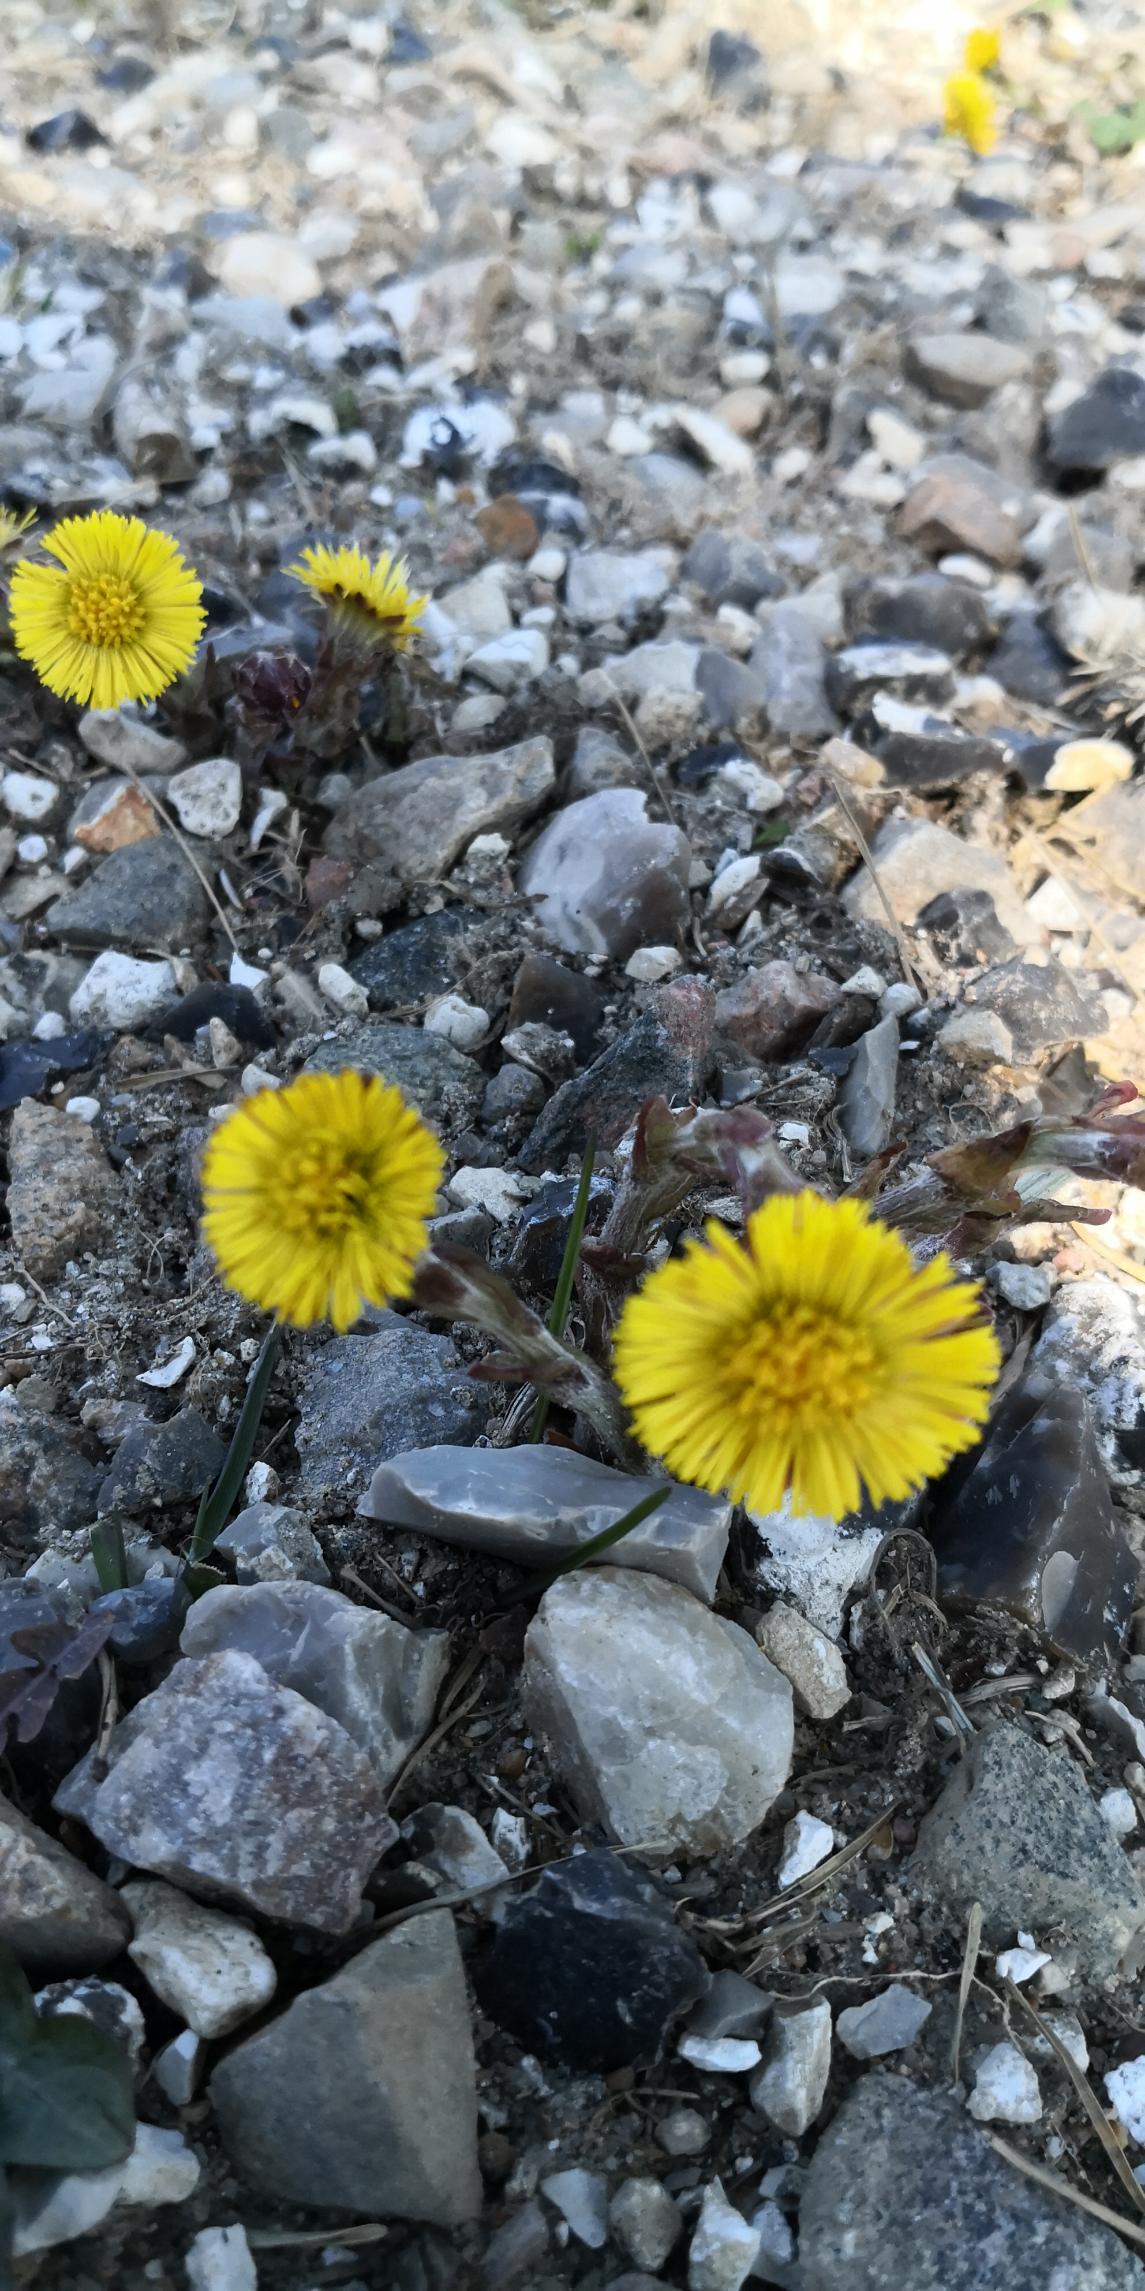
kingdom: Plantae
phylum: Tracheophyta
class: Magnoliopsida
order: Asterales
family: Asteraceae
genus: Tussilago
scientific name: Tussilago farfara
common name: Følfod
